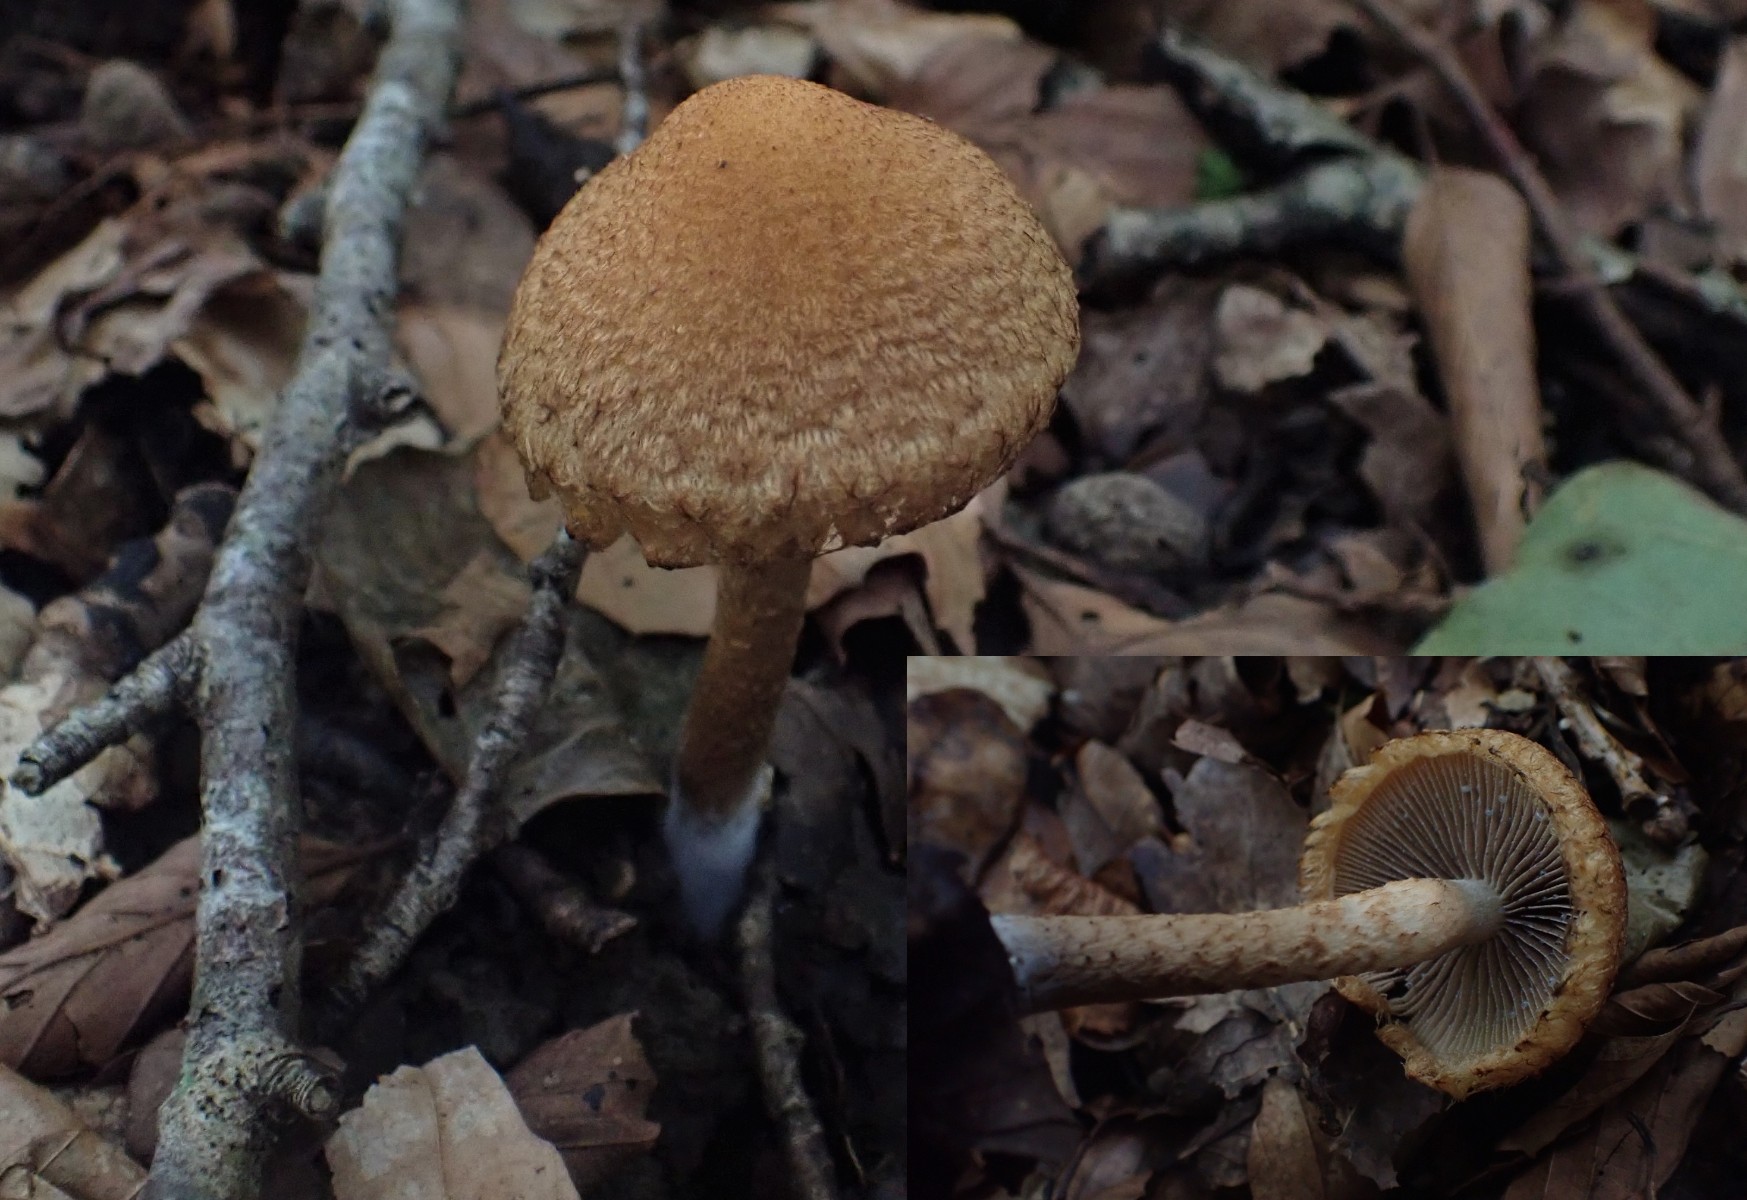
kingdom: Fungi
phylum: Basidiomycota
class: Agaricomycetes
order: Agaricales
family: Psathyrellaceae
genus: Lacrymaria
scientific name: Lacrymaria pyrotricha
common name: ildhåret mørkhat
